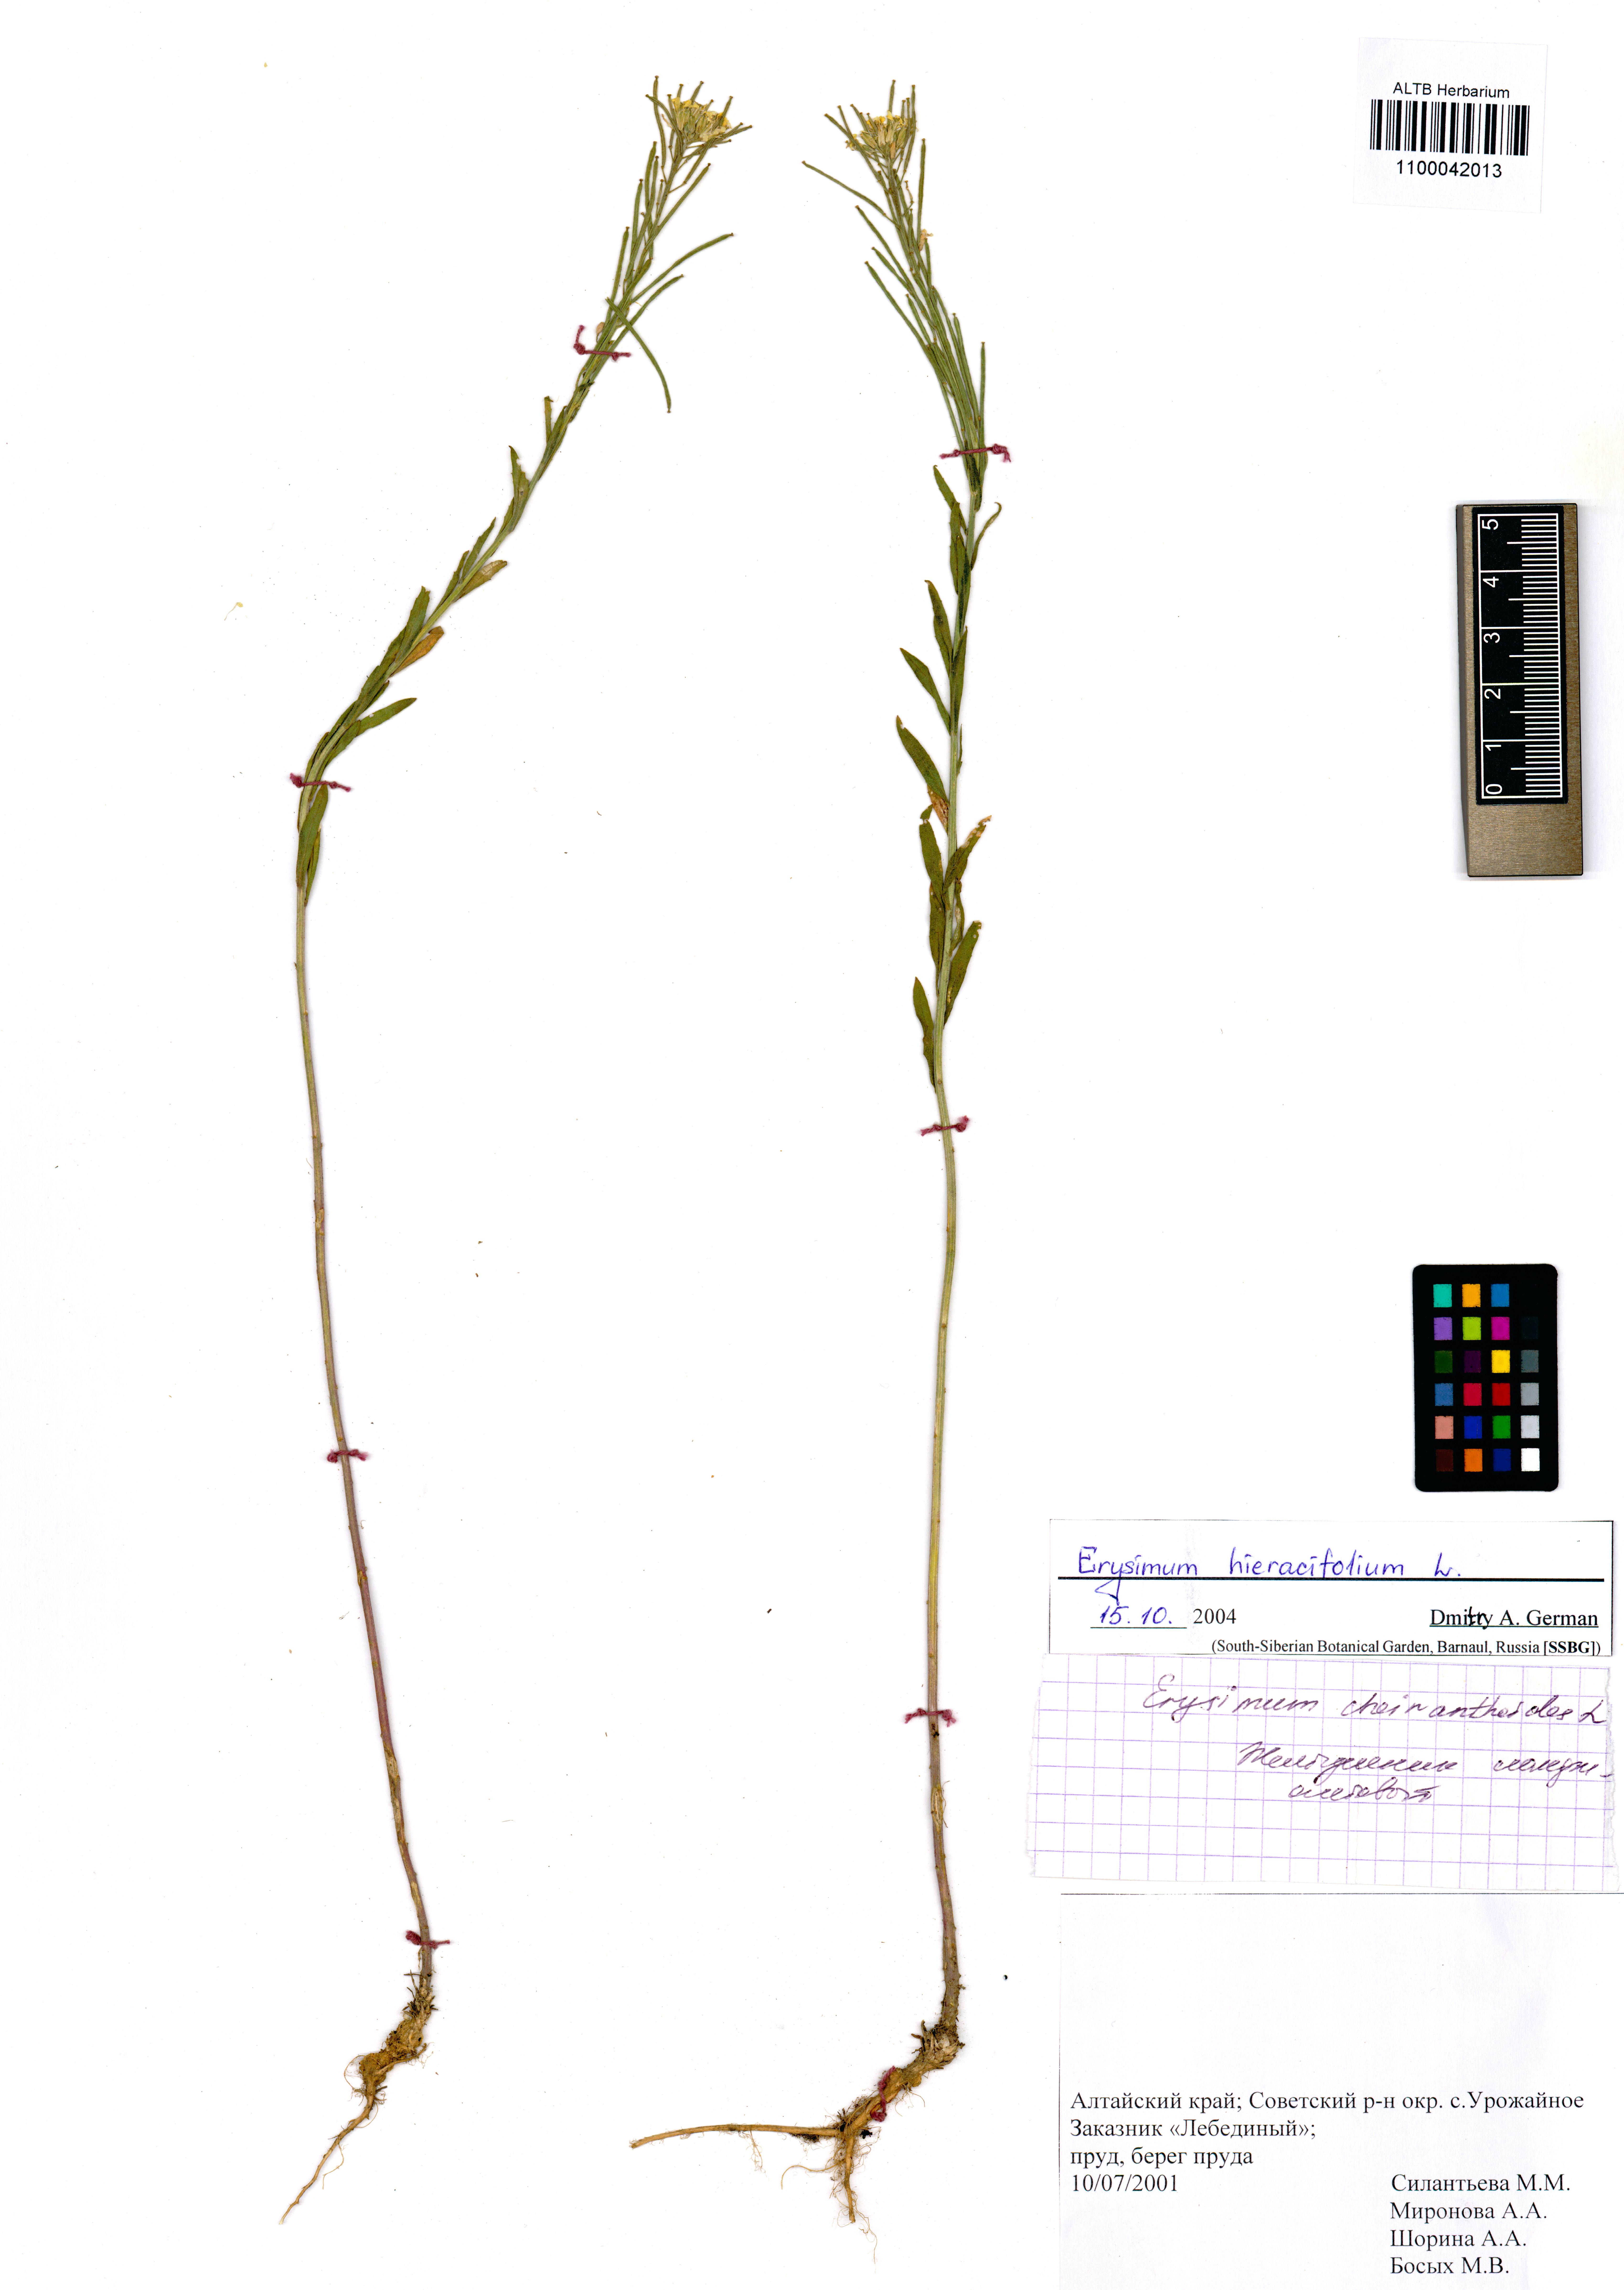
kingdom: Plantae
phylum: Tracheophyta
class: Magnoliopsida
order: Brassicales
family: Brassicaceae
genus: Erysimum
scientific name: Erysimum hieraciifolium
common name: European wallflower
